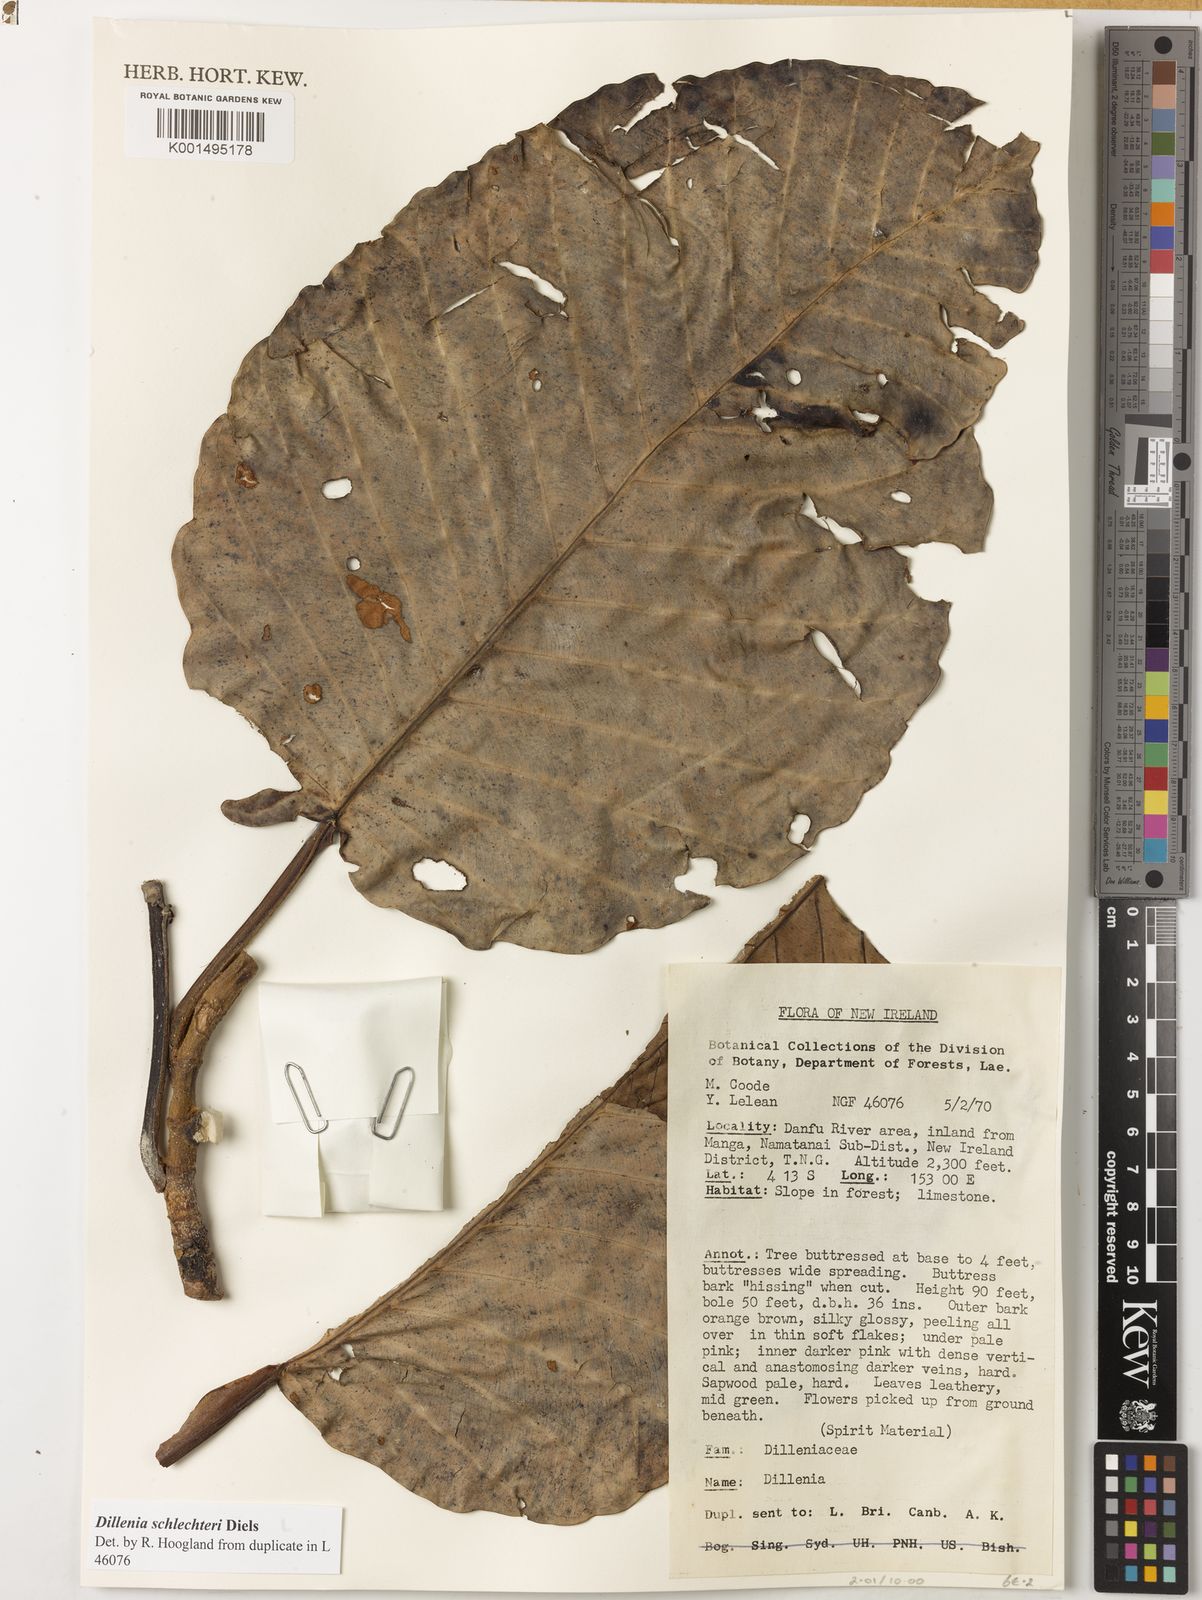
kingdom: Plantae
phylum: Tracheophyta
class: Magnoliopsida
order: Dilleniales
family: Dilleniaceae
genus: Dillenia
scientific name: Dillenia schlechteri
